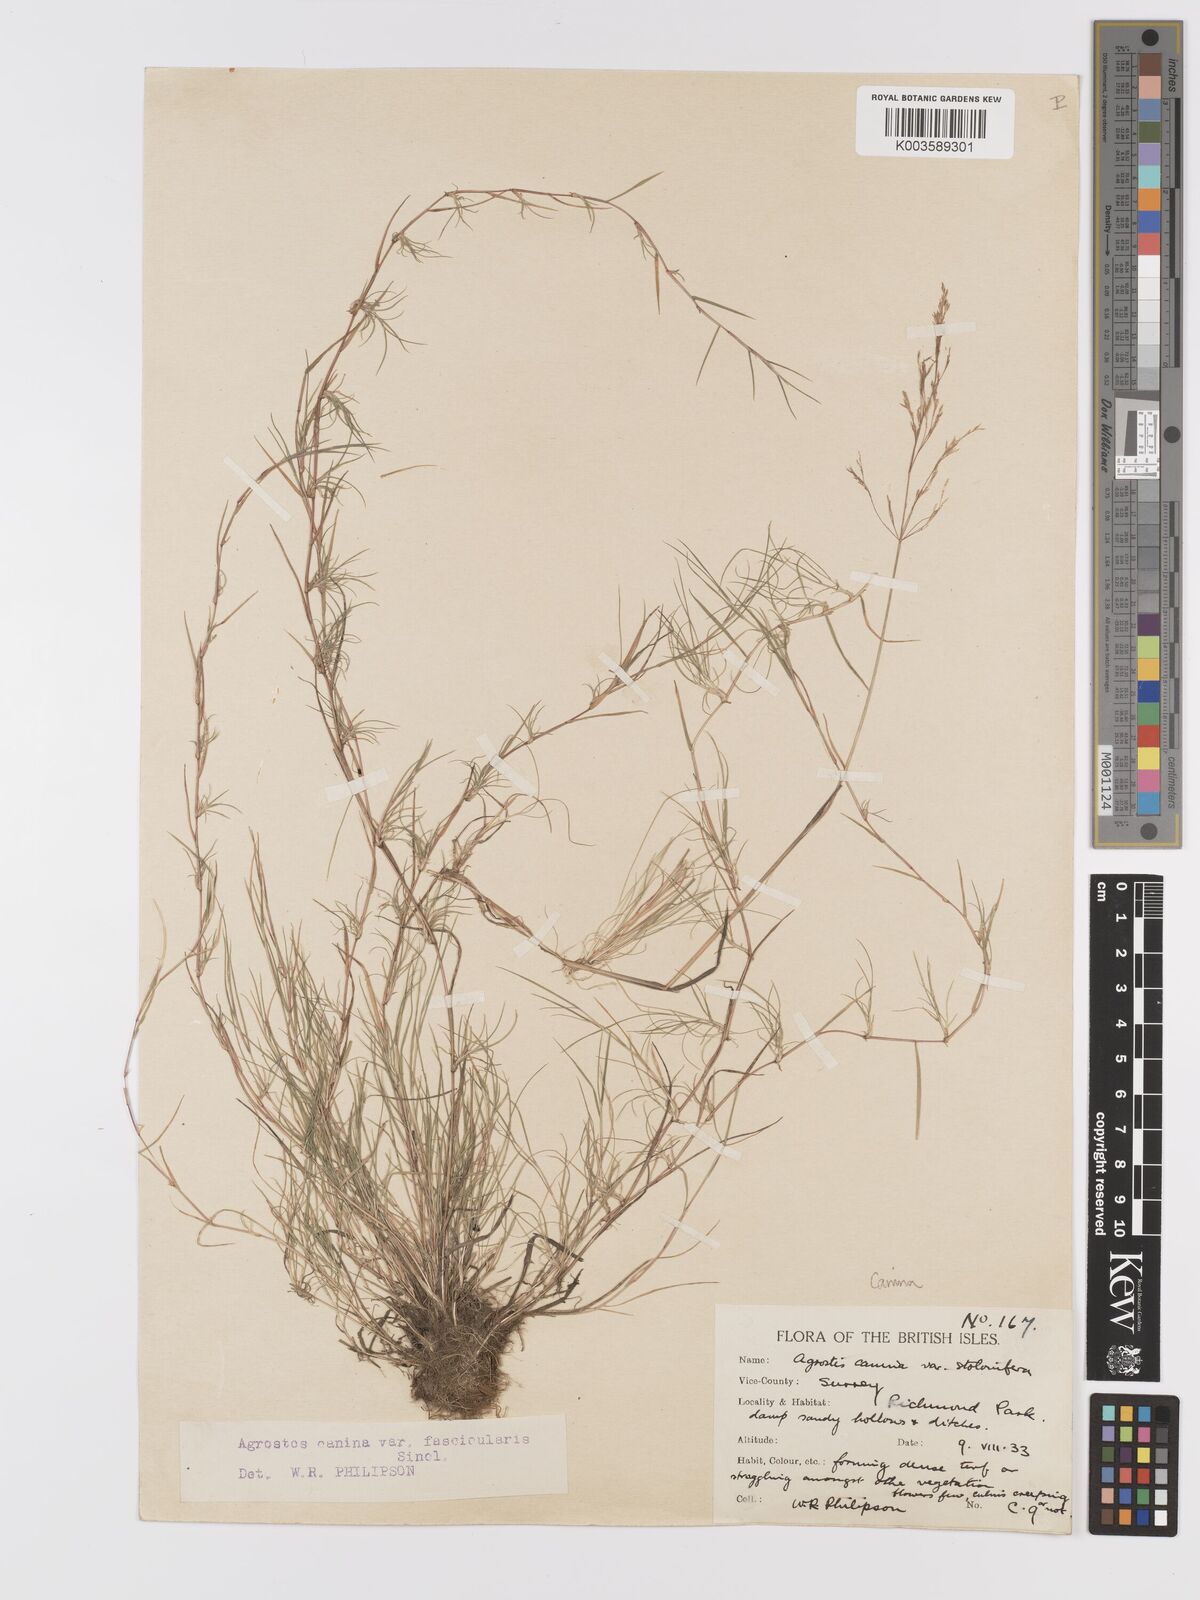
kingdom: Plantae
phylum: Tracheophyta
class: Liliopsida
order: Poales
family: Poaceae
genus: Agrostis
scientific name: Agrostis canina
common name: Velvet bent
